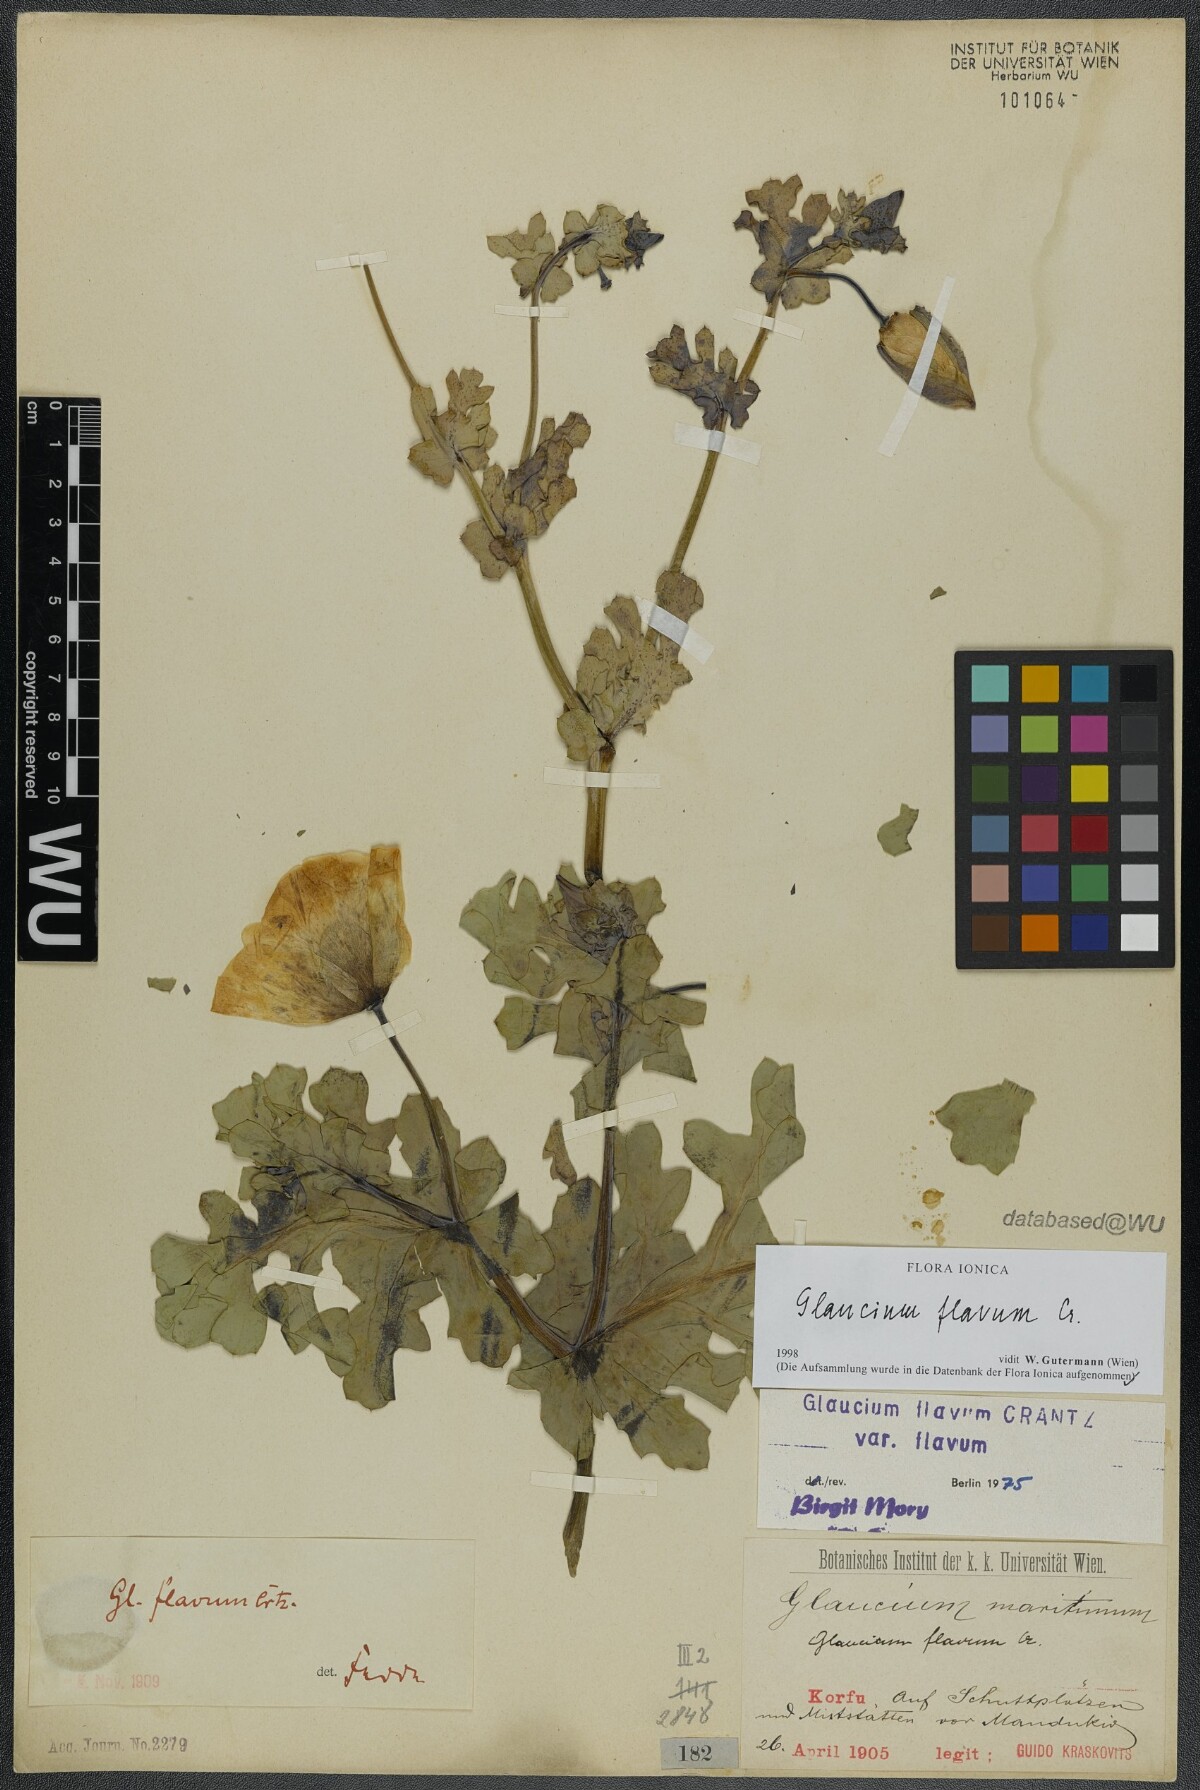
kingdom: Plantae
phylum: Tracheophyta
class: Magnoliopsida
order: Ranunculales
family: Papaveraceae
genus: Glaucium
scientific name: Glaucium flavum
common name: Yellow horned-poppy
